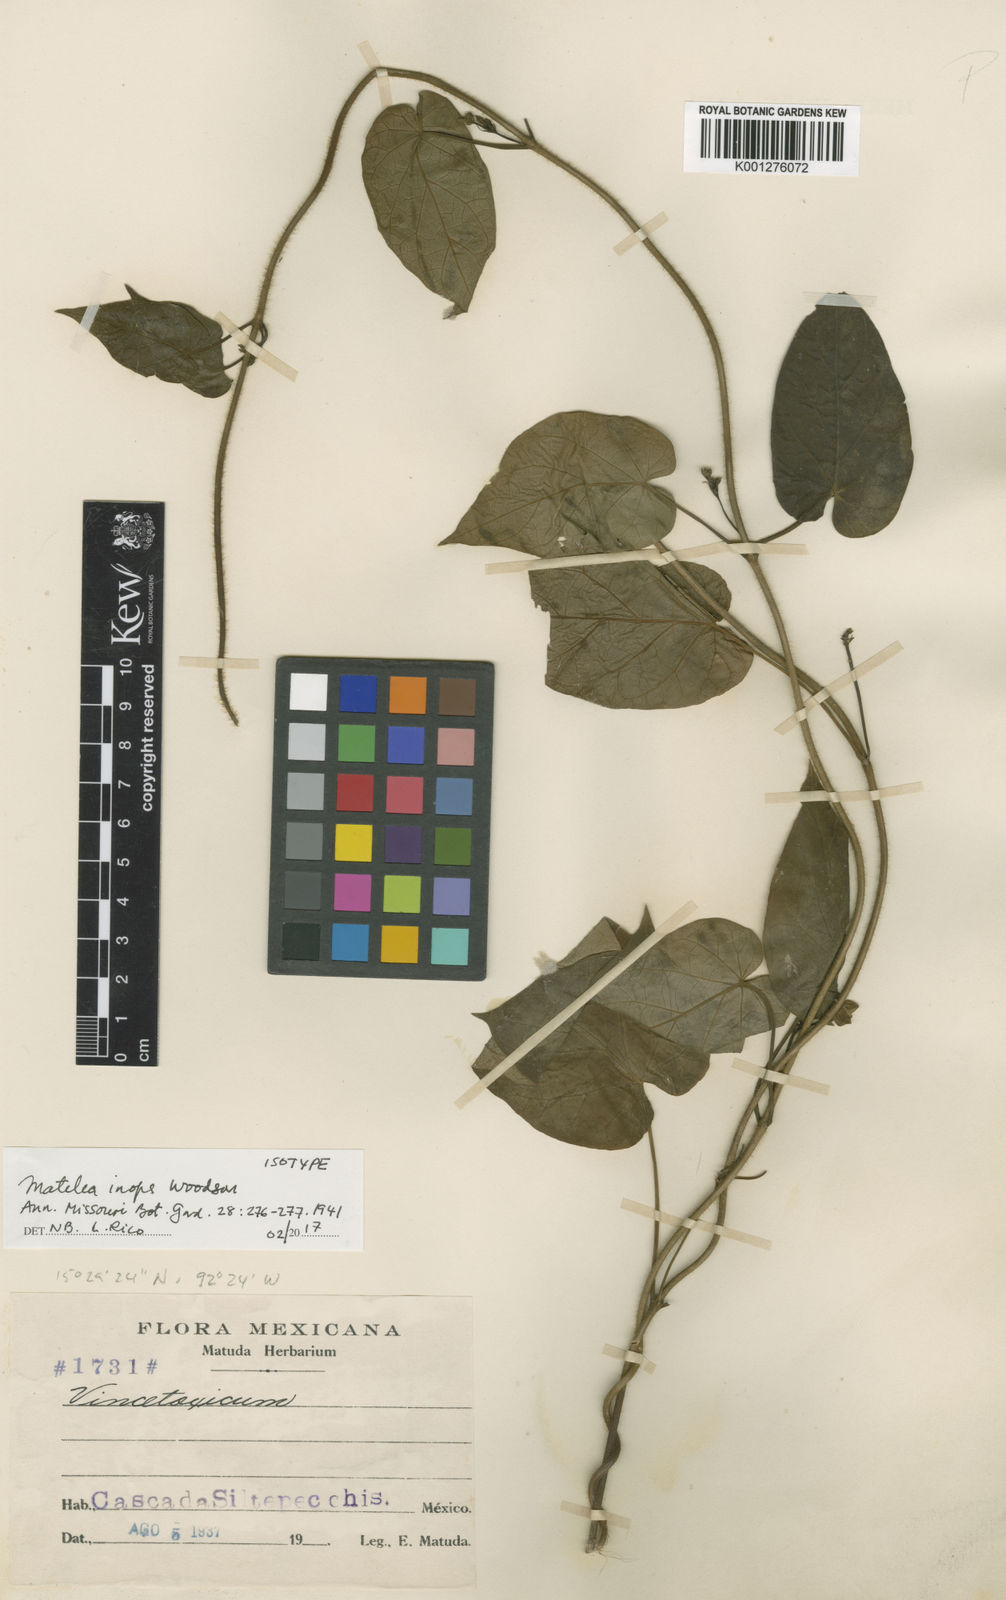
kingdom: Plantae
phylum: Tracheophyta
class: Magnoliopsida
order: Gentianales
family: Apocynaceae
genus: Matelea
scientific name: Matelea inops
